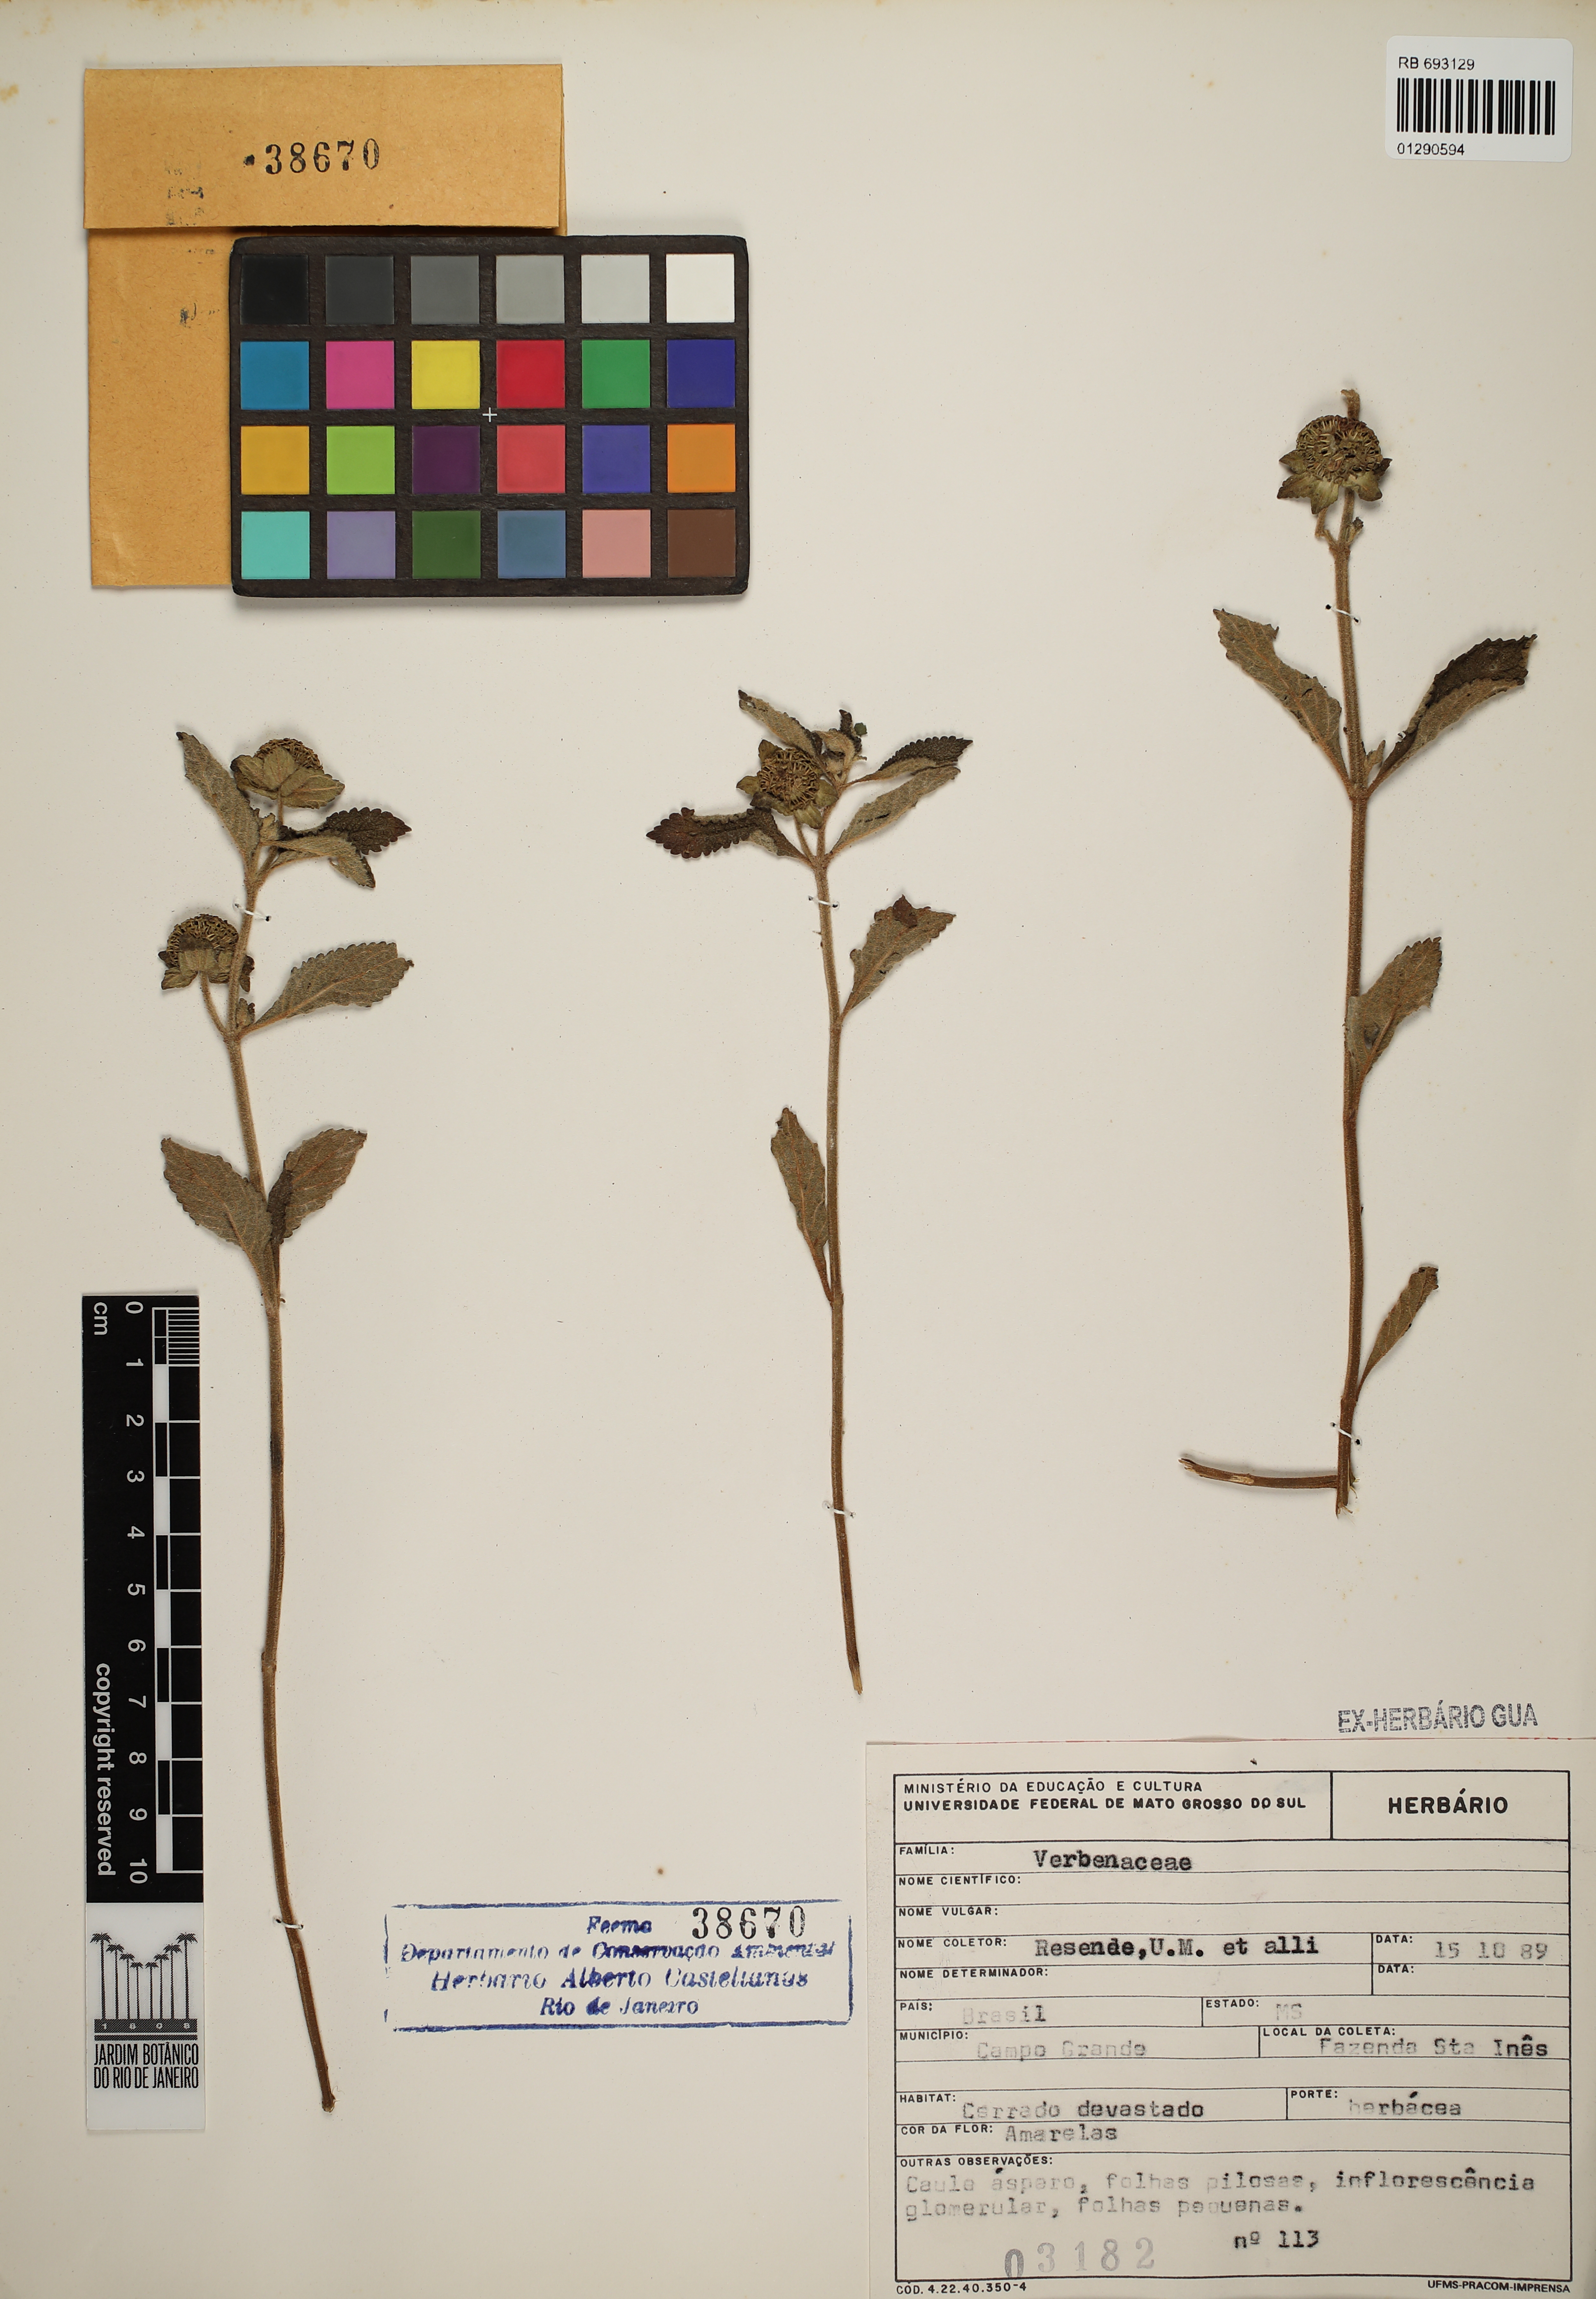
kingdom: Plantae
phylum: Tracheophyta
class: Magnoliopsida
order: Lamiales
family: Lamiaceae
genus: Hyptis
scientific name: Hyptis campestris
